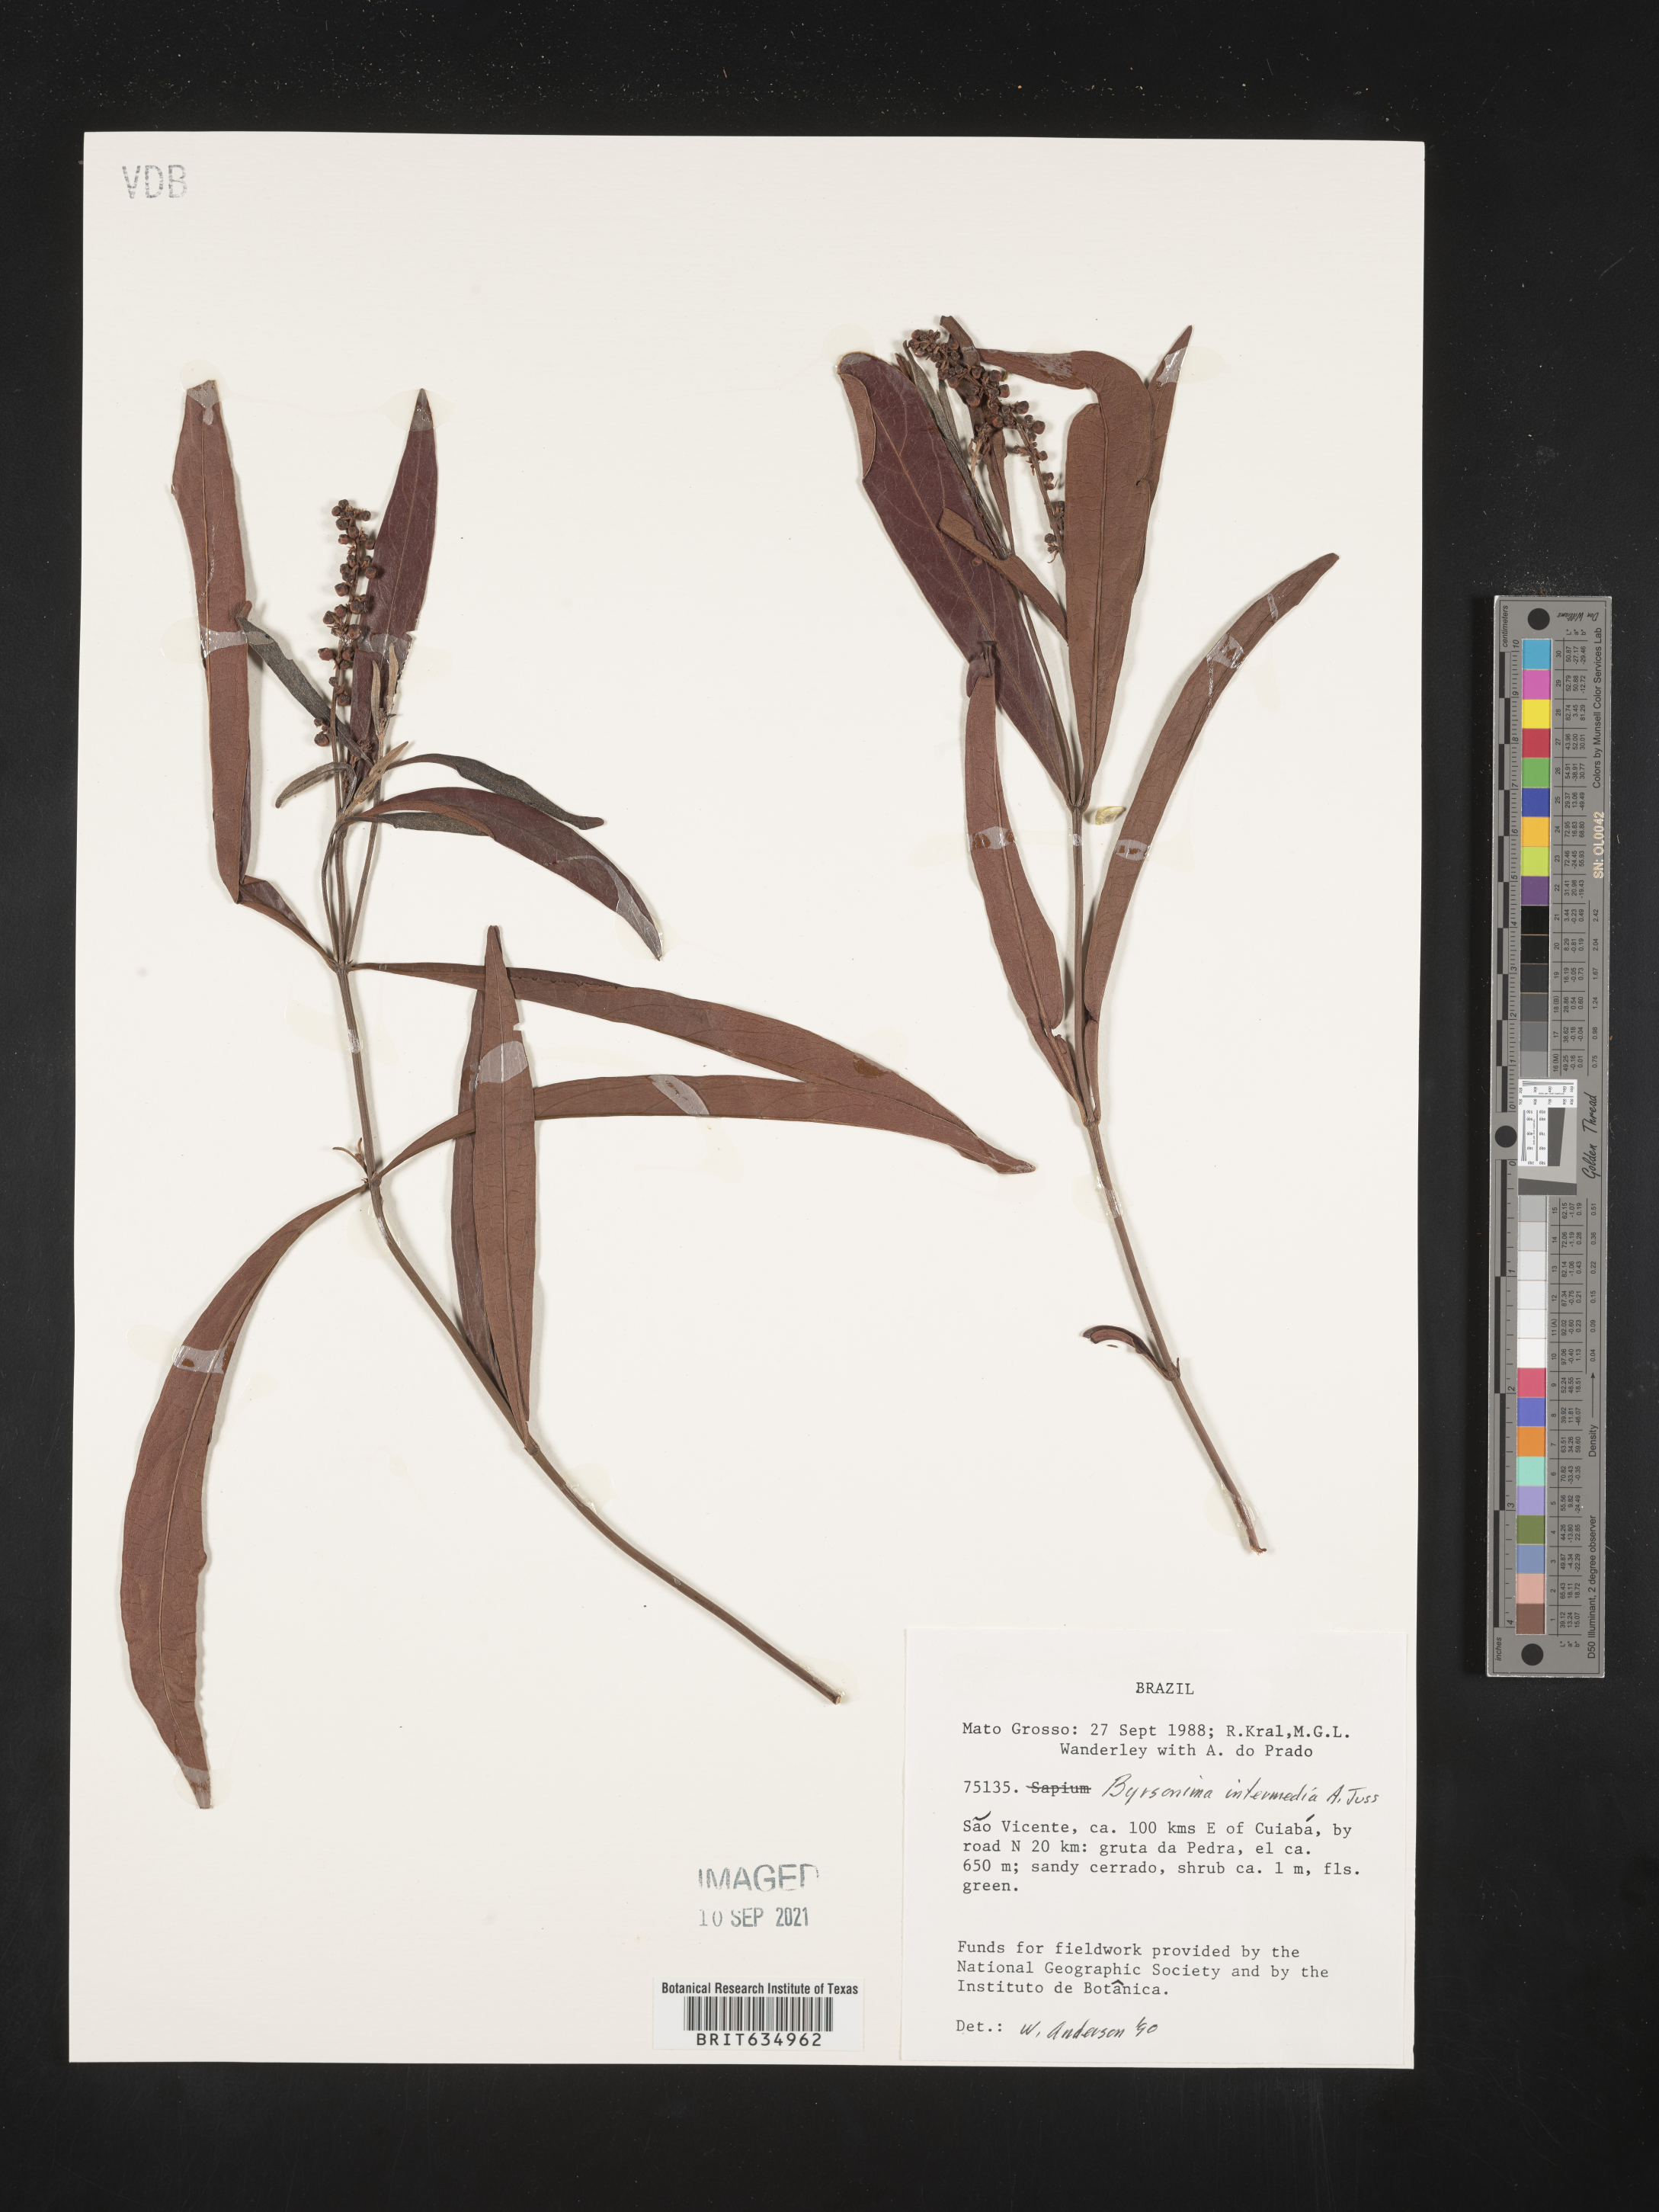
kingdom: Plantae
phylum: Tracheophyta
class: Magnoliopsida
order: Malpighiales
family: Malpighiaceae
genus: Byrsonima
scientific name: Byrsonima
